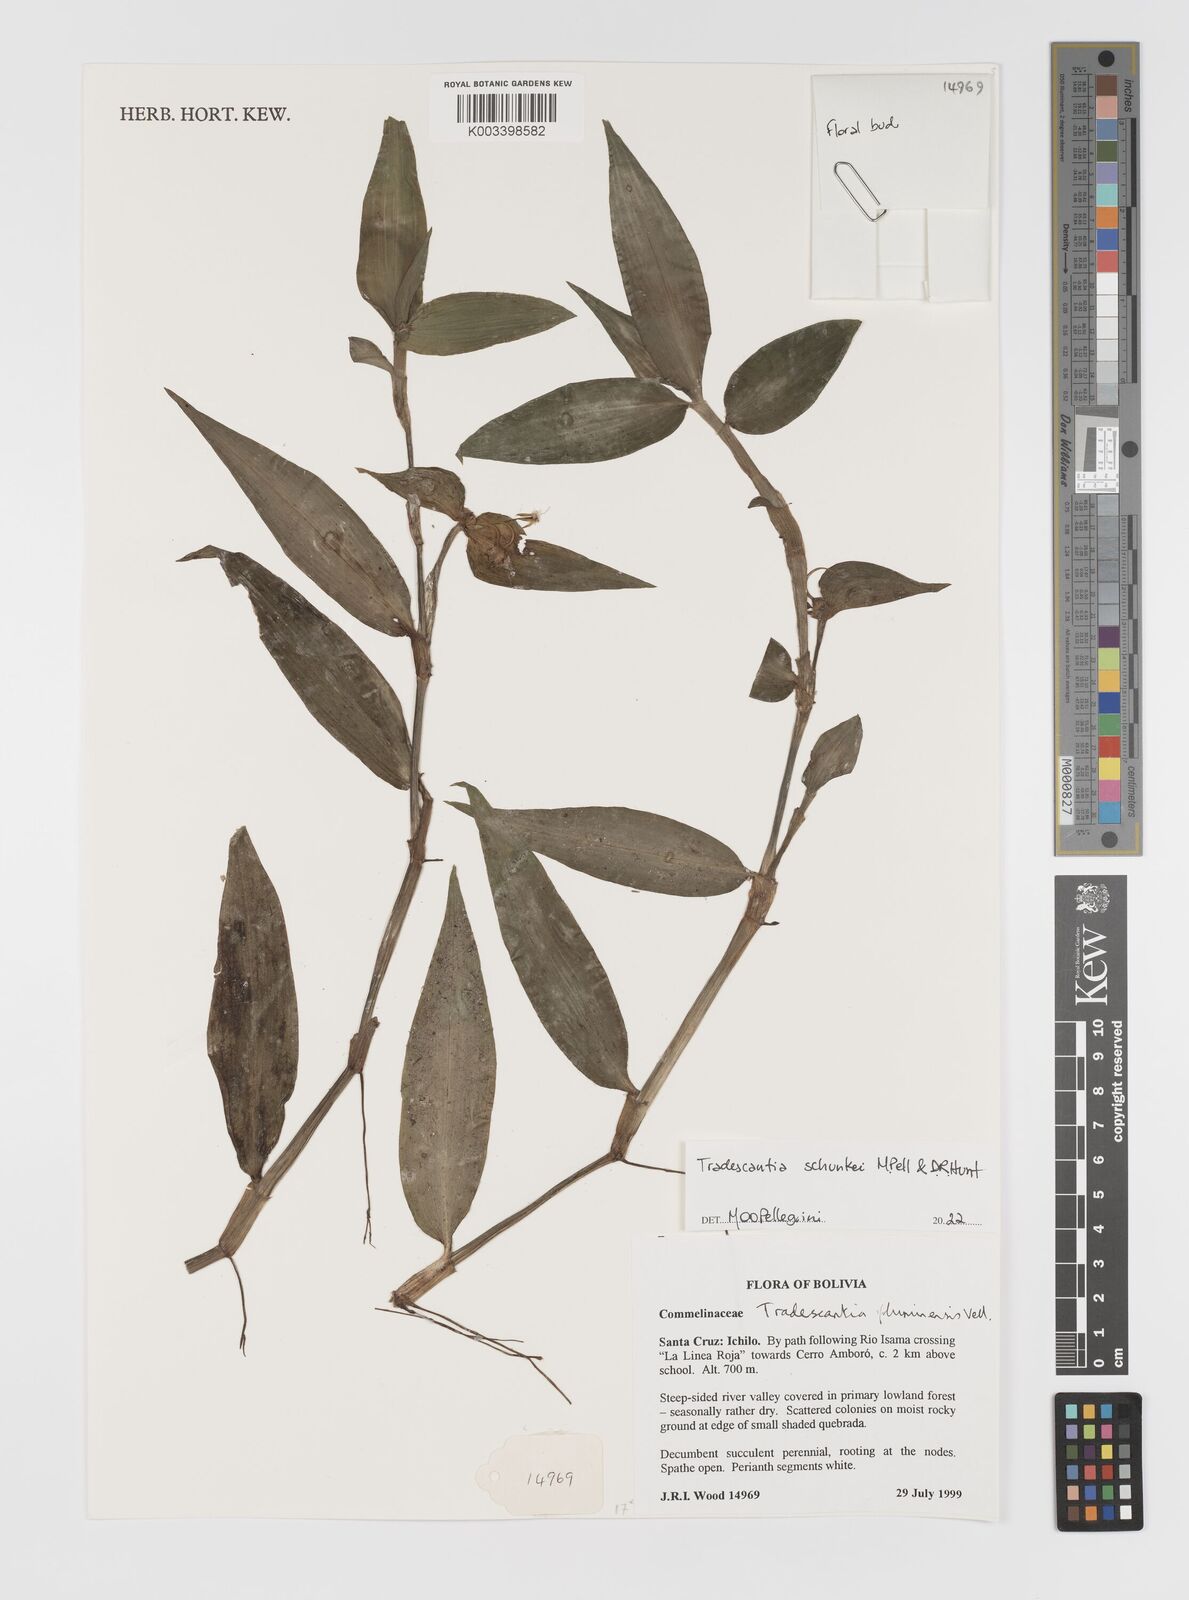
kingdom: Plantae
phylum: Tracheophyta
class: Liliopsida
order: Commelinales
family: Commelinaceae
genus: Tradescantia
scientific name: Tradescantia
